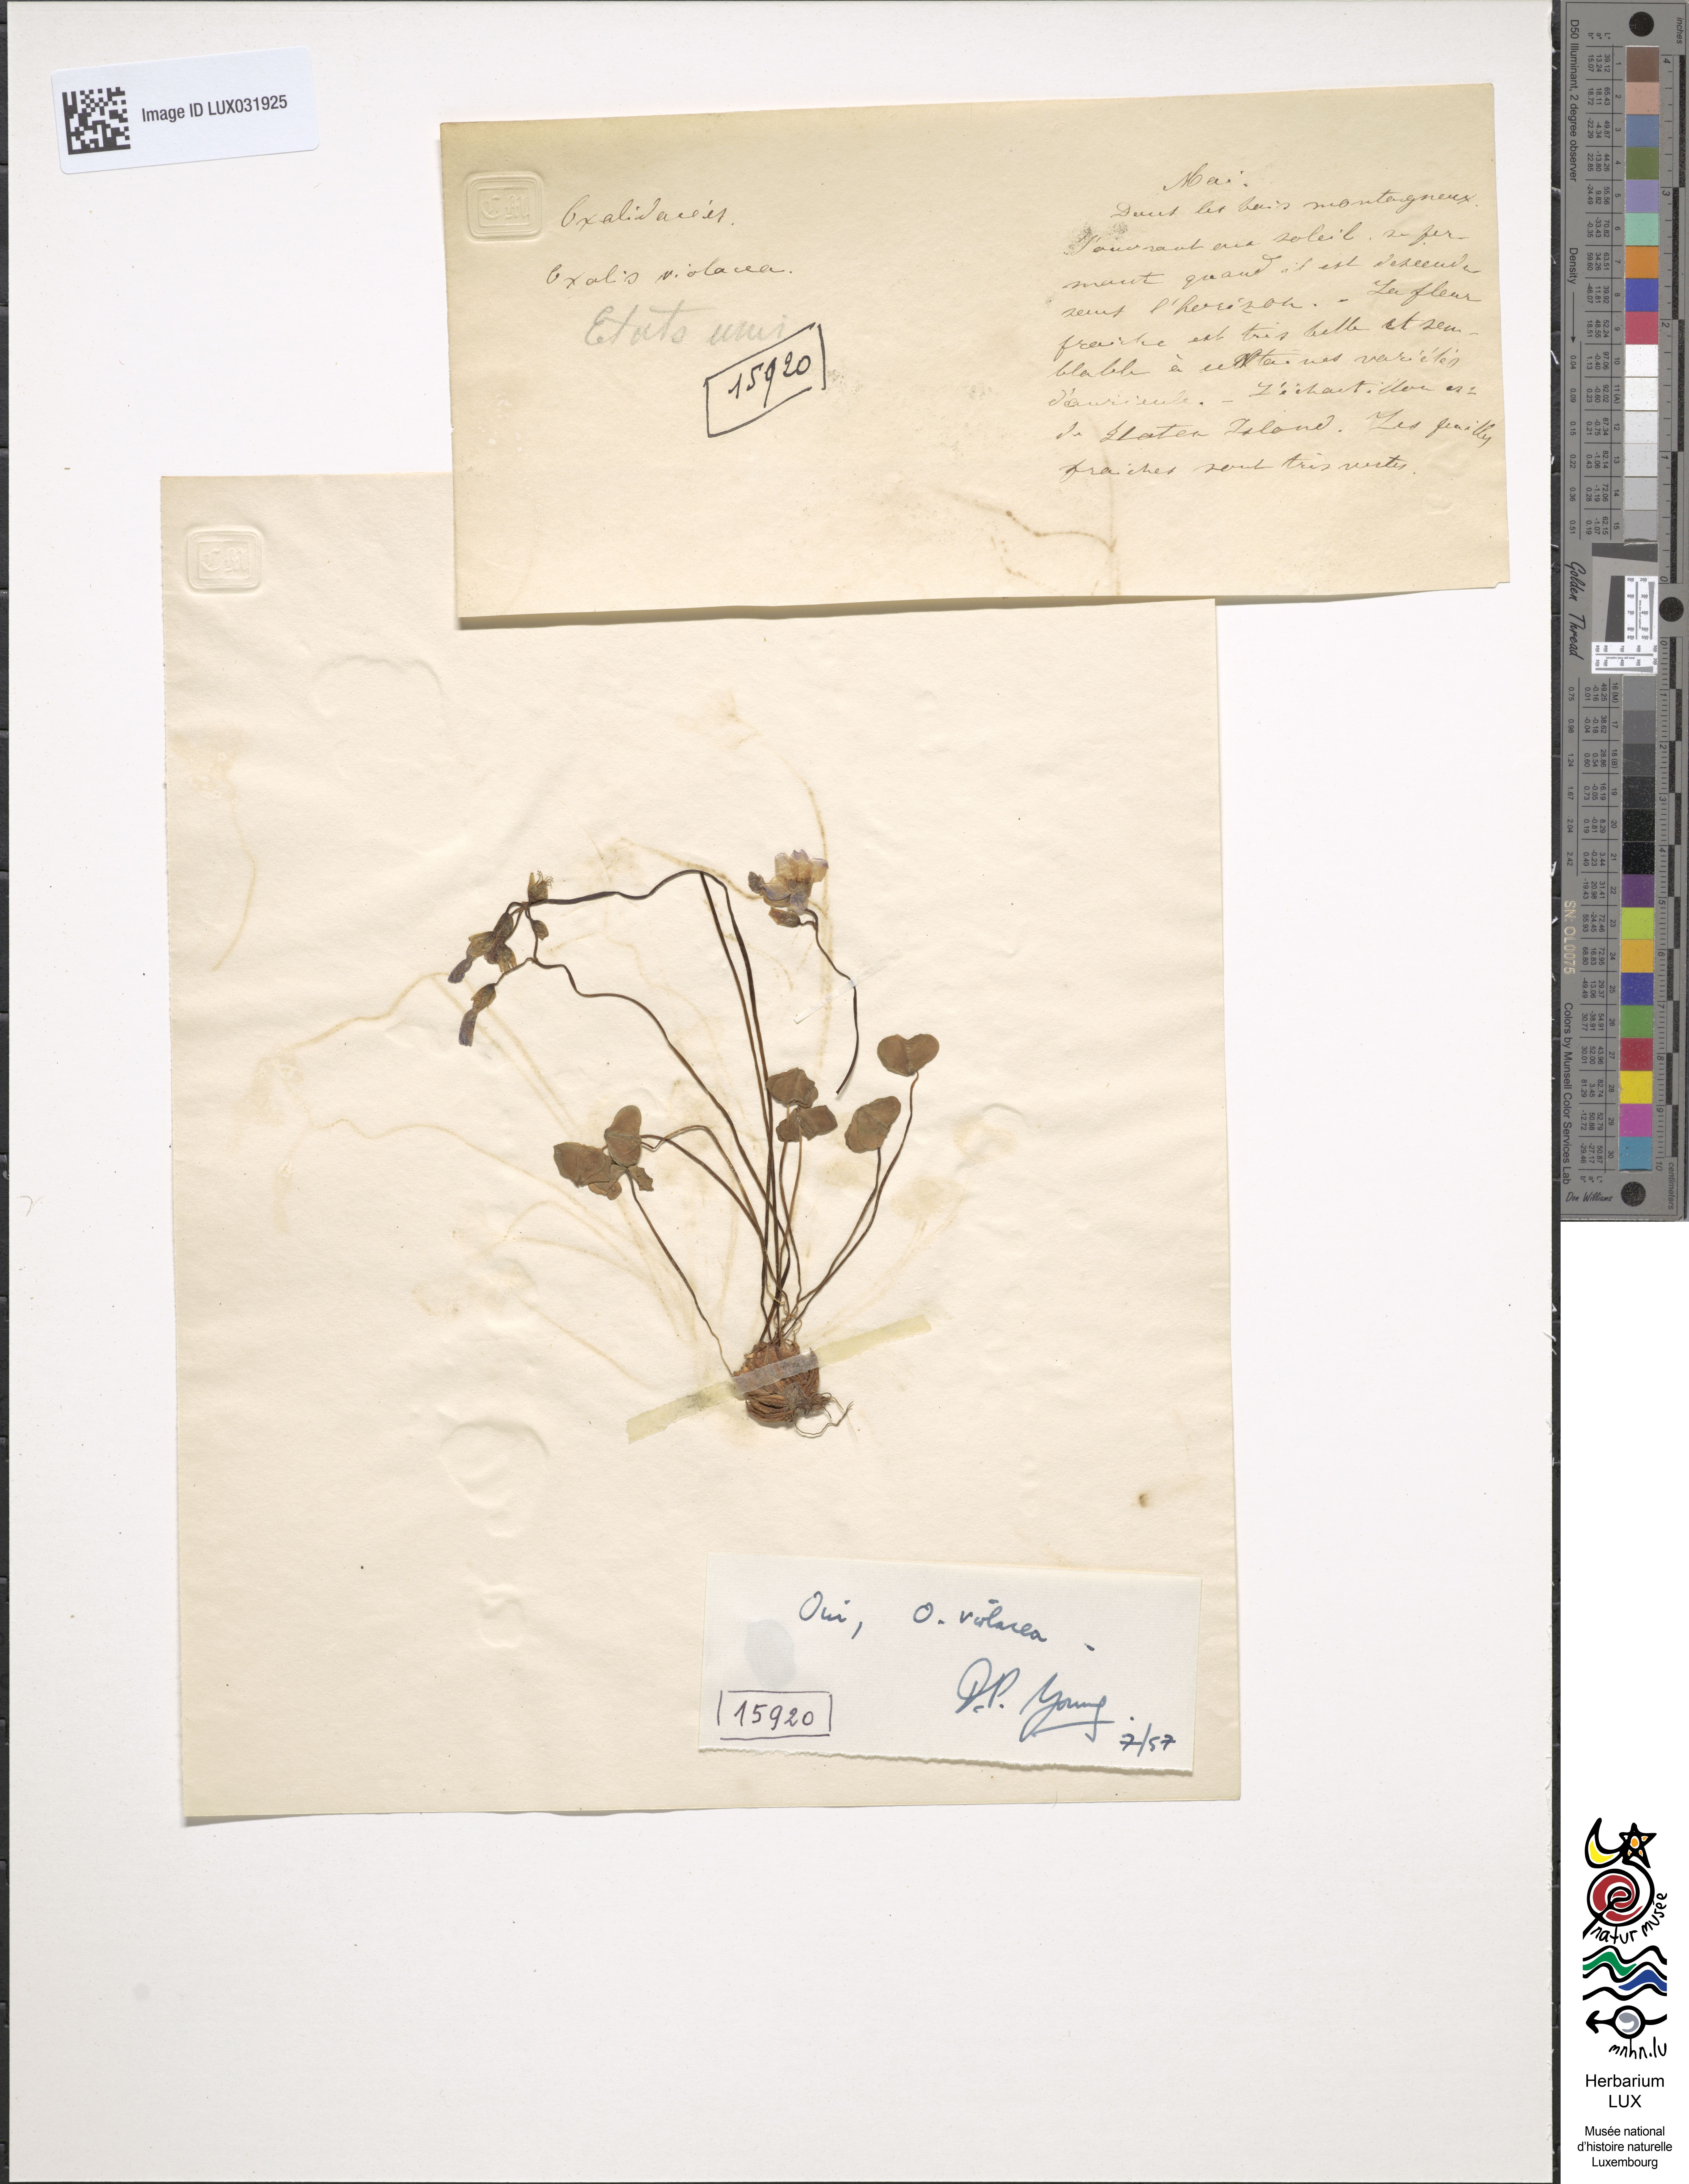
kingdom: Plantae
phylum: Tracheophyta
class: Magnoliopsida
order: Oxalidales
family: Oxalidaceae
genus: Oxalis
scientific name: Oxalis violacea
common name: Violet wood-sorrel
